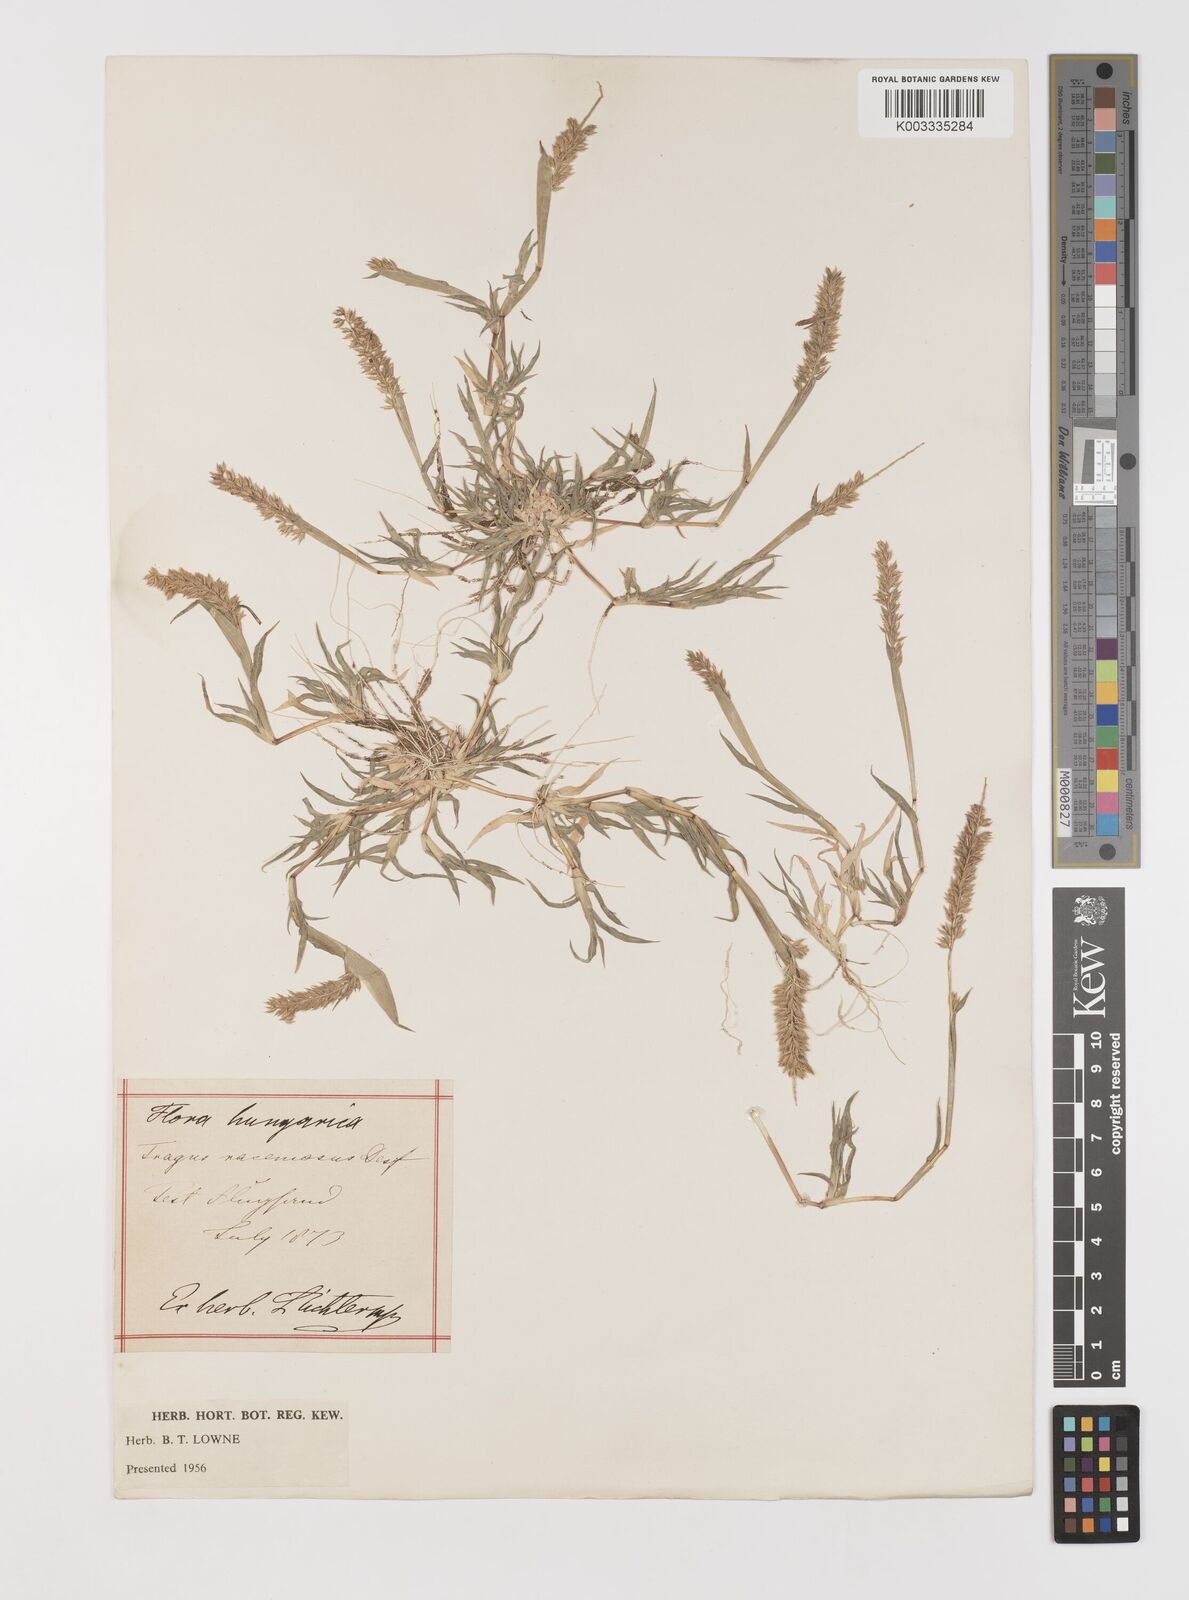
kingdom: Plantae
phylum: Tracheophyta
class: Liliopsida
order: Poales
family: Poaceae
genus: Tragus
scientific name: Tragus racemosus
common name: European bur-grass
